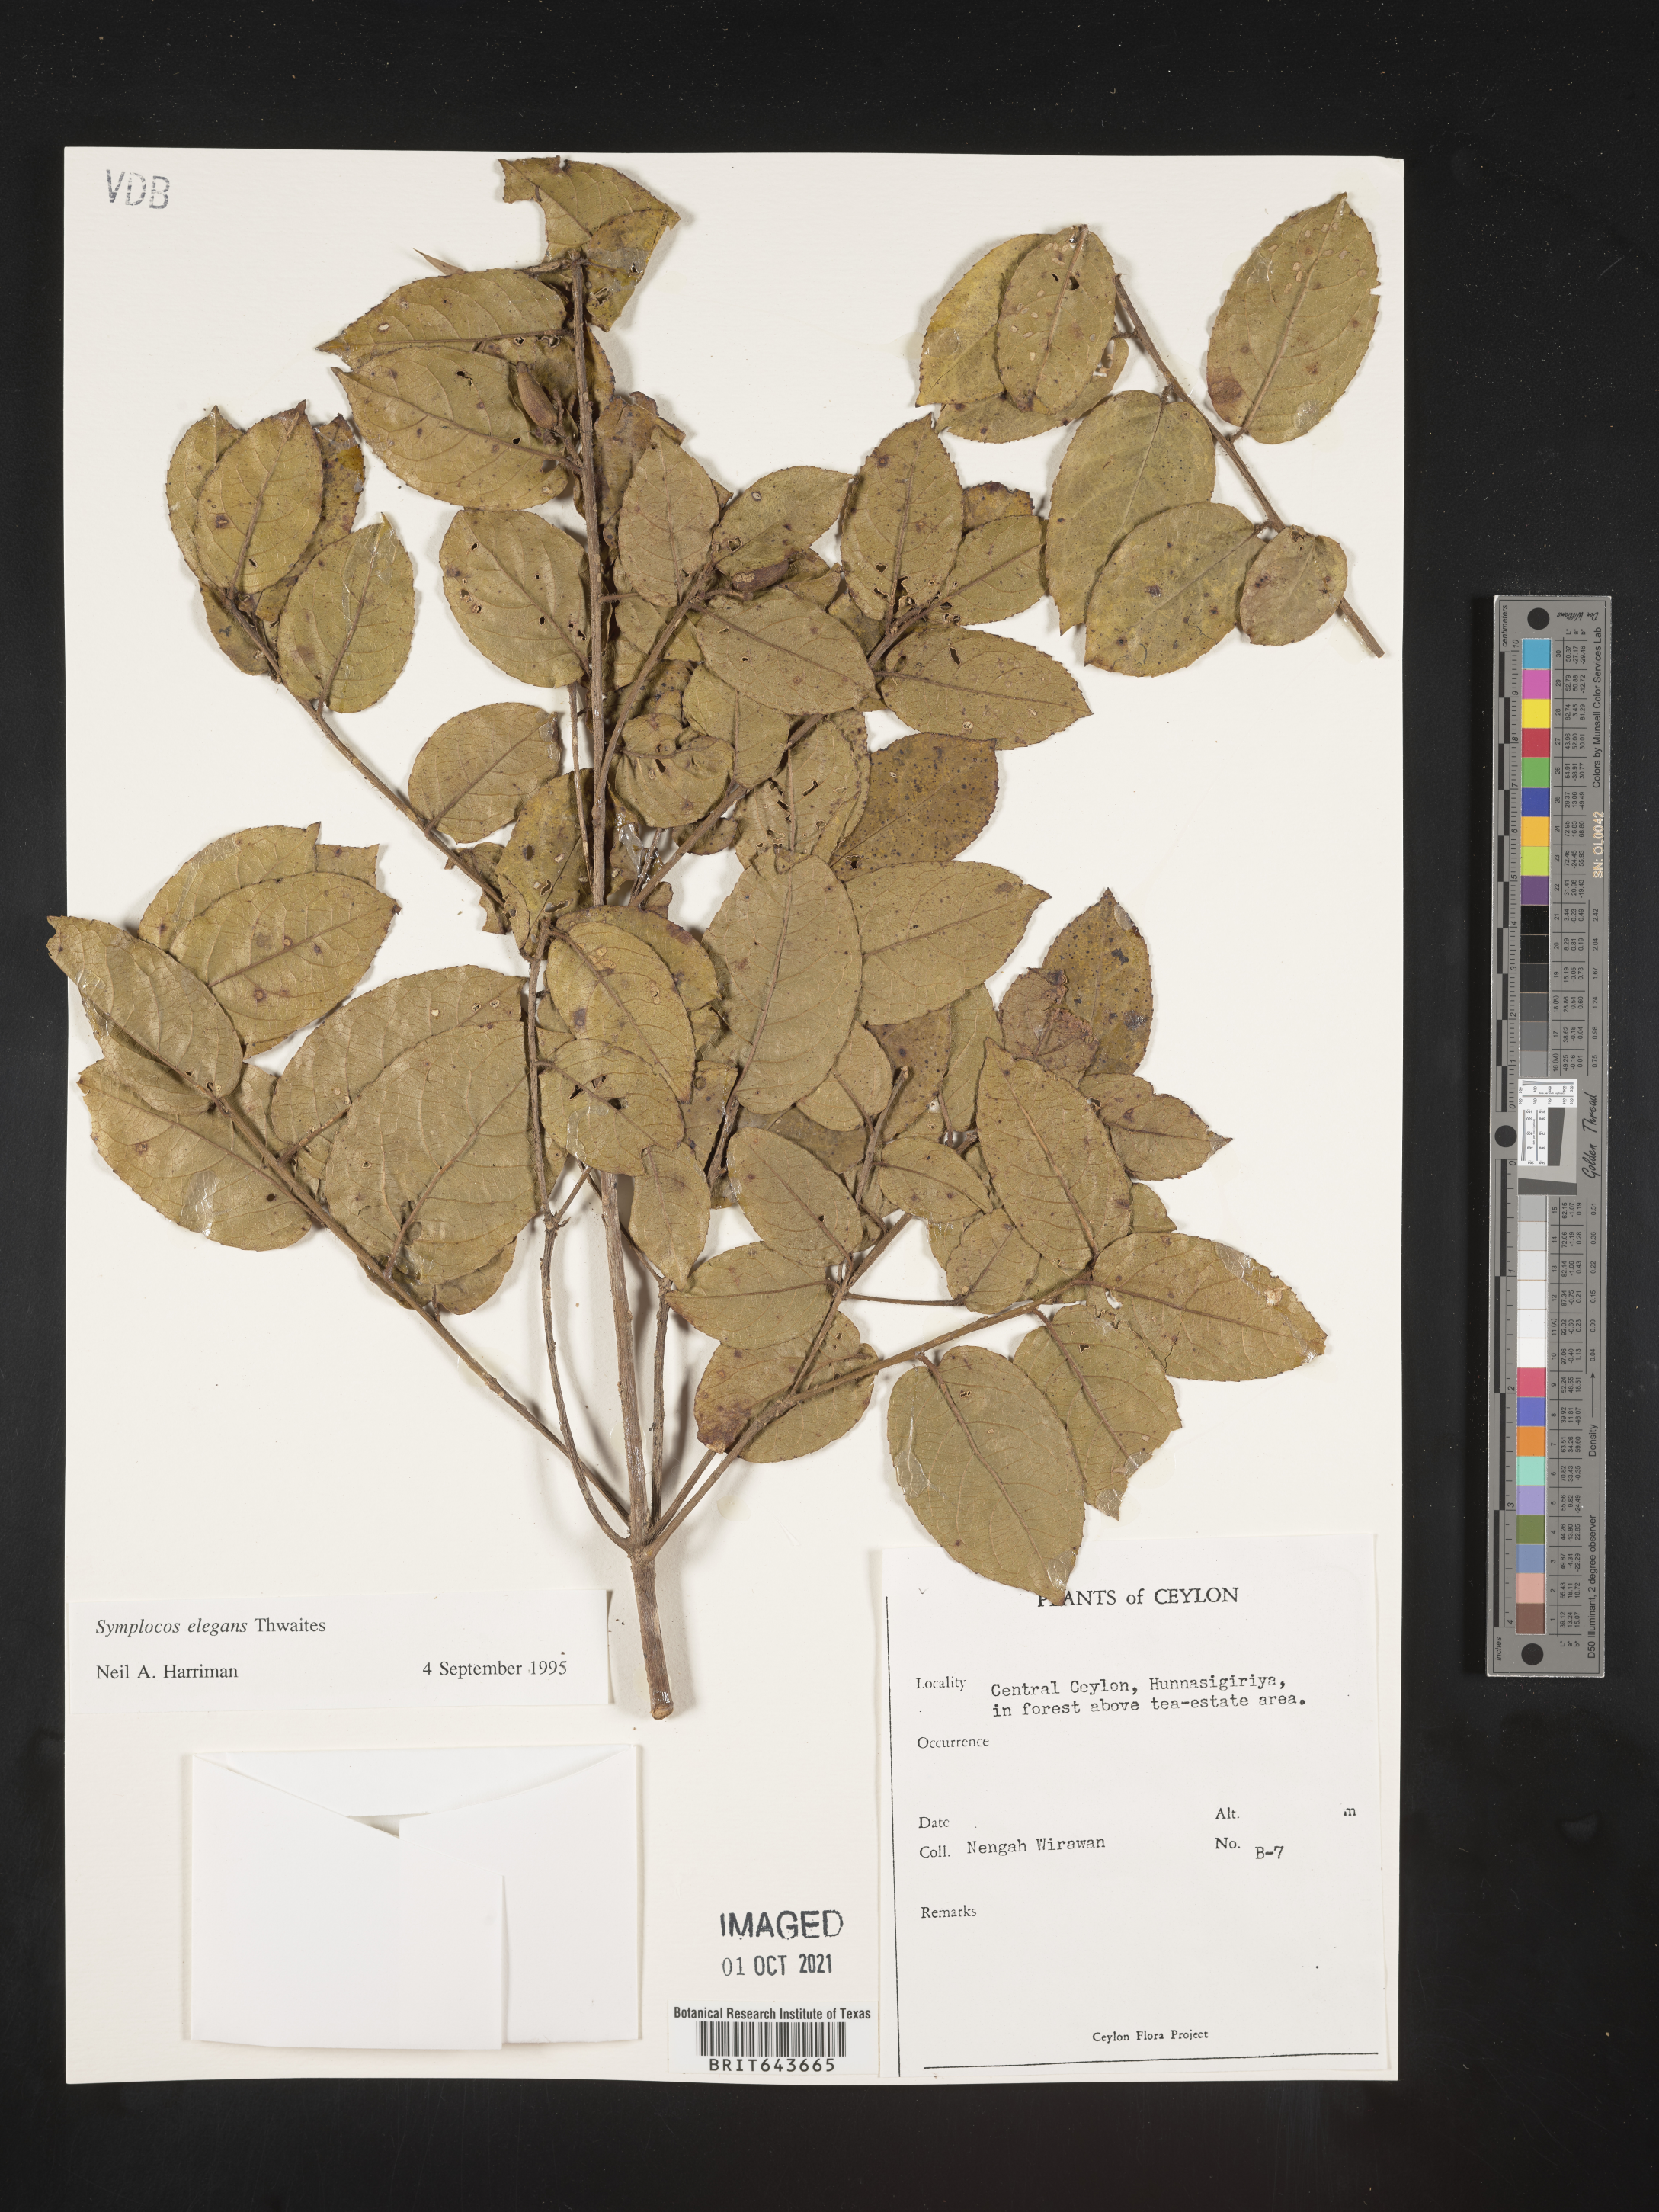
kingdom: Plantae
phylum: Tracheophyta
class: Magnoliopsida
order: Ericales
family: Symplocaceae
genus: Symplocos
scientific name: Symplocos
